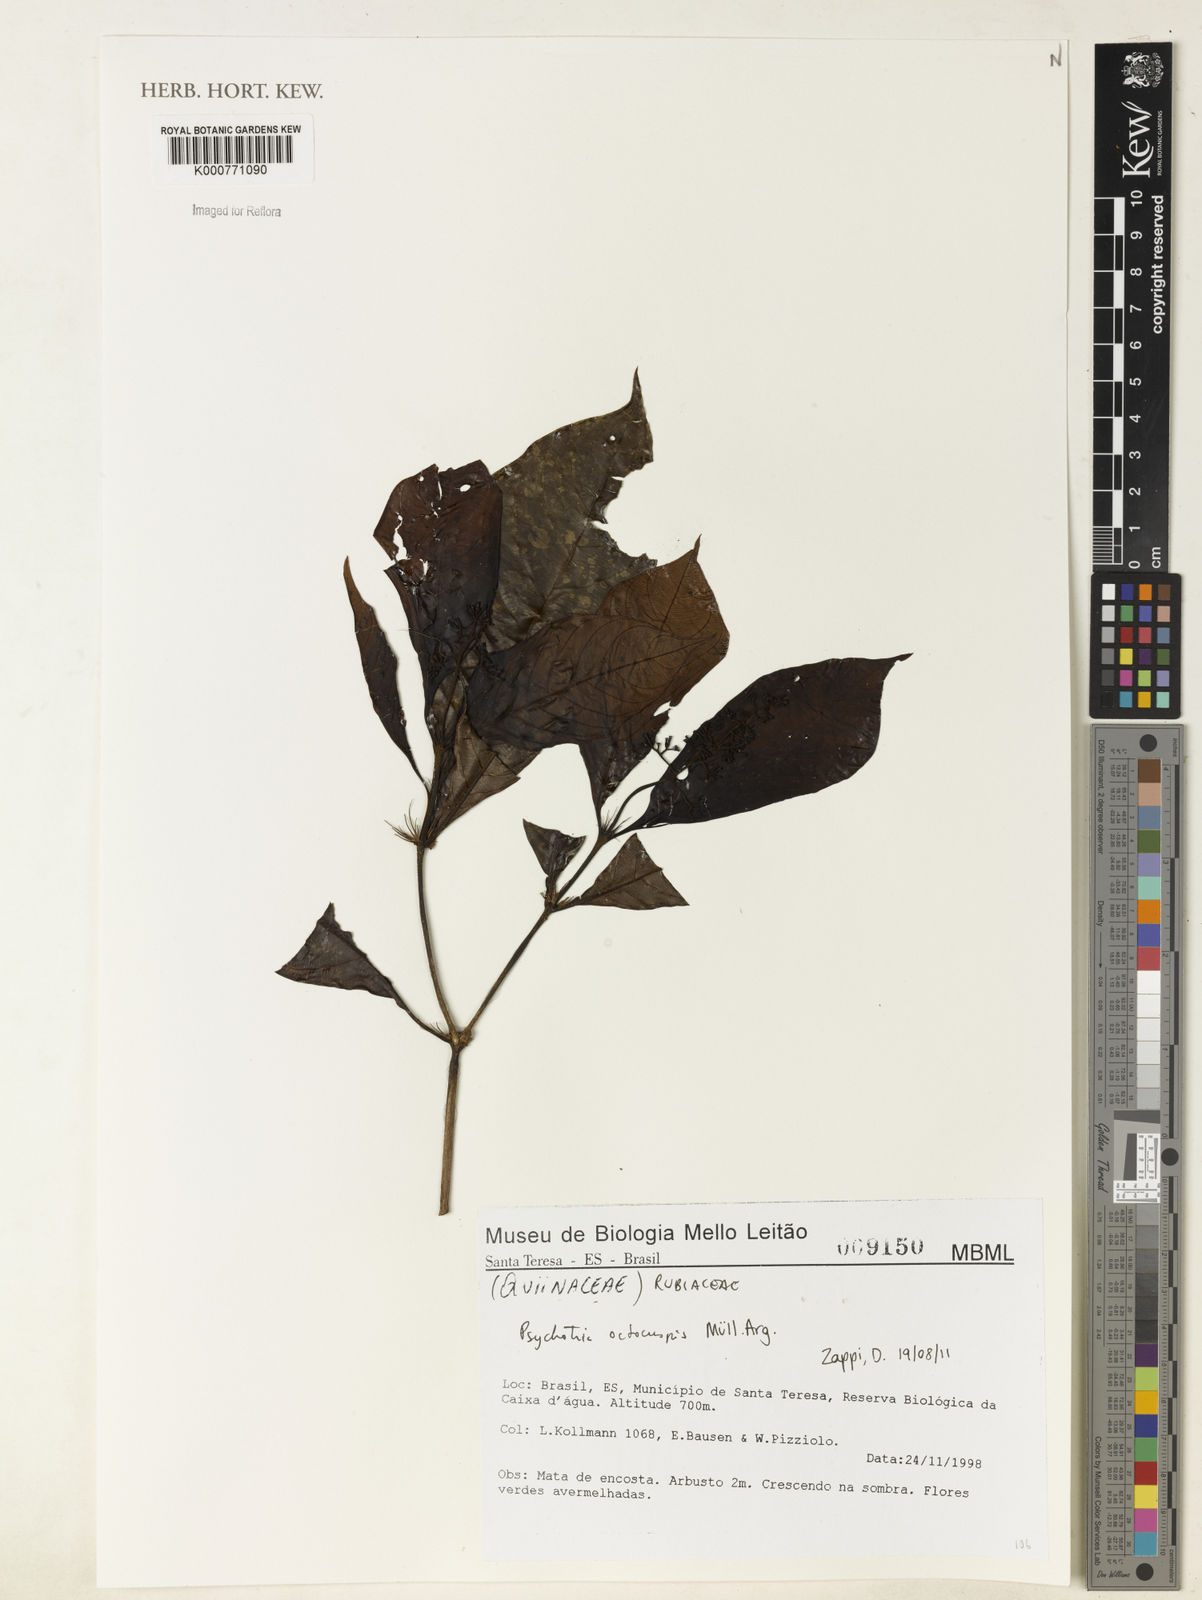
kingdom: Plantae
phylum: Tracheophyta
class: Magnoliopsida
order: Gentianales
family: Rubiaceae
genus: Psychotria
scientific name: Psychotria
